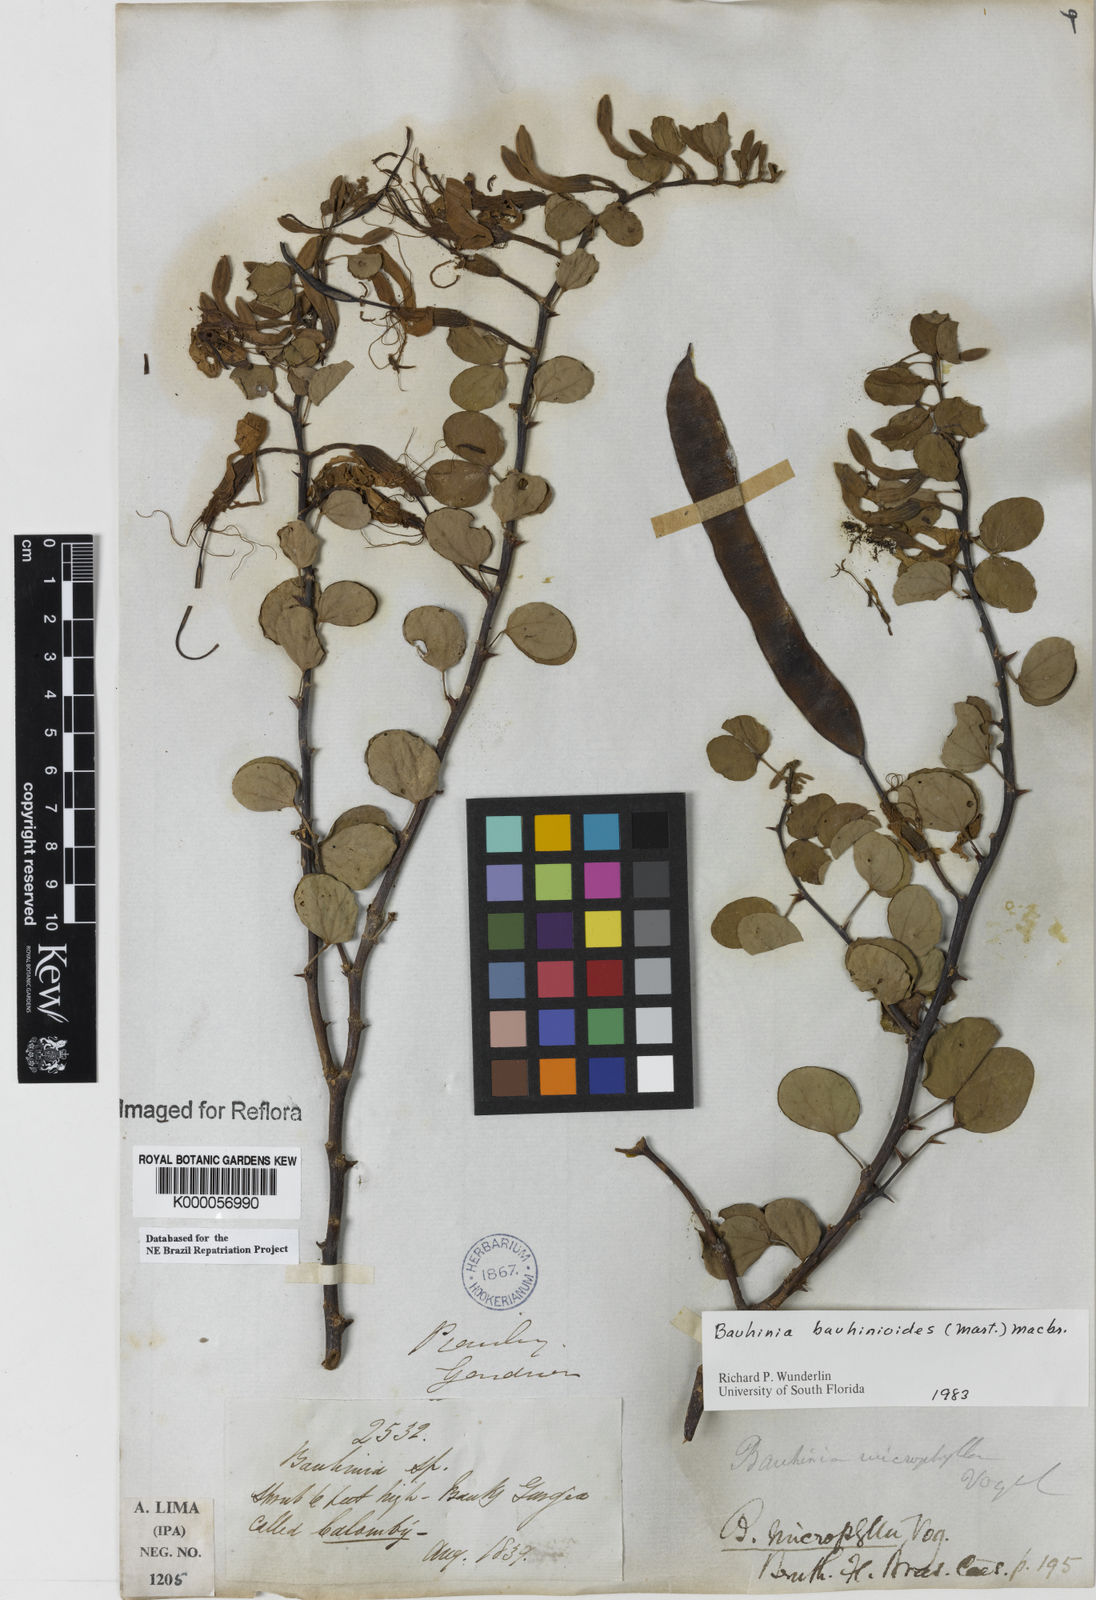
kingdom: Plantae
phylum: Tracheophyta
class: Magnoliopsida
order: Fabales
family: Fabaceae
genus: Bauhinia
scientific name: Bauhinia bauhinioides
